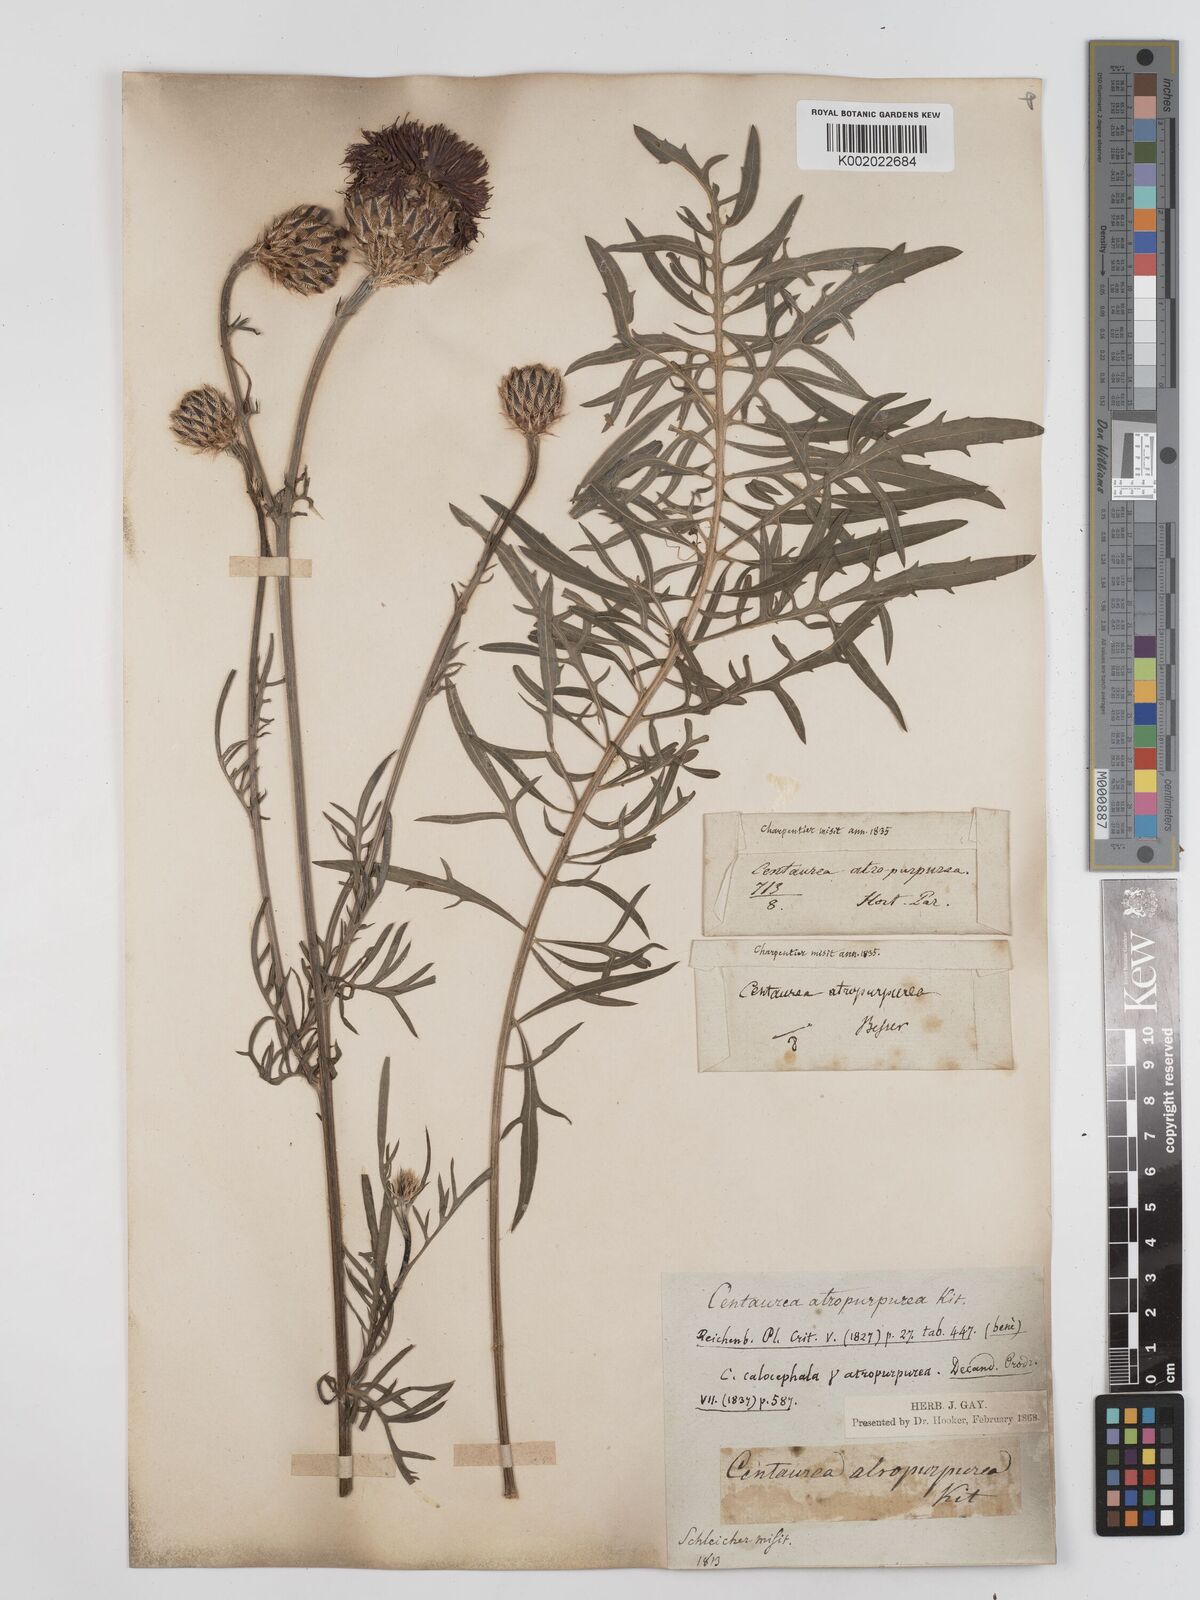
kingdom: Plantae
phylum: Tracheophyta
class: Magnoliopsida
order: Asterales
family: Asteraceae
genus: Centaurea
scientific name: Centaurea calocephala
